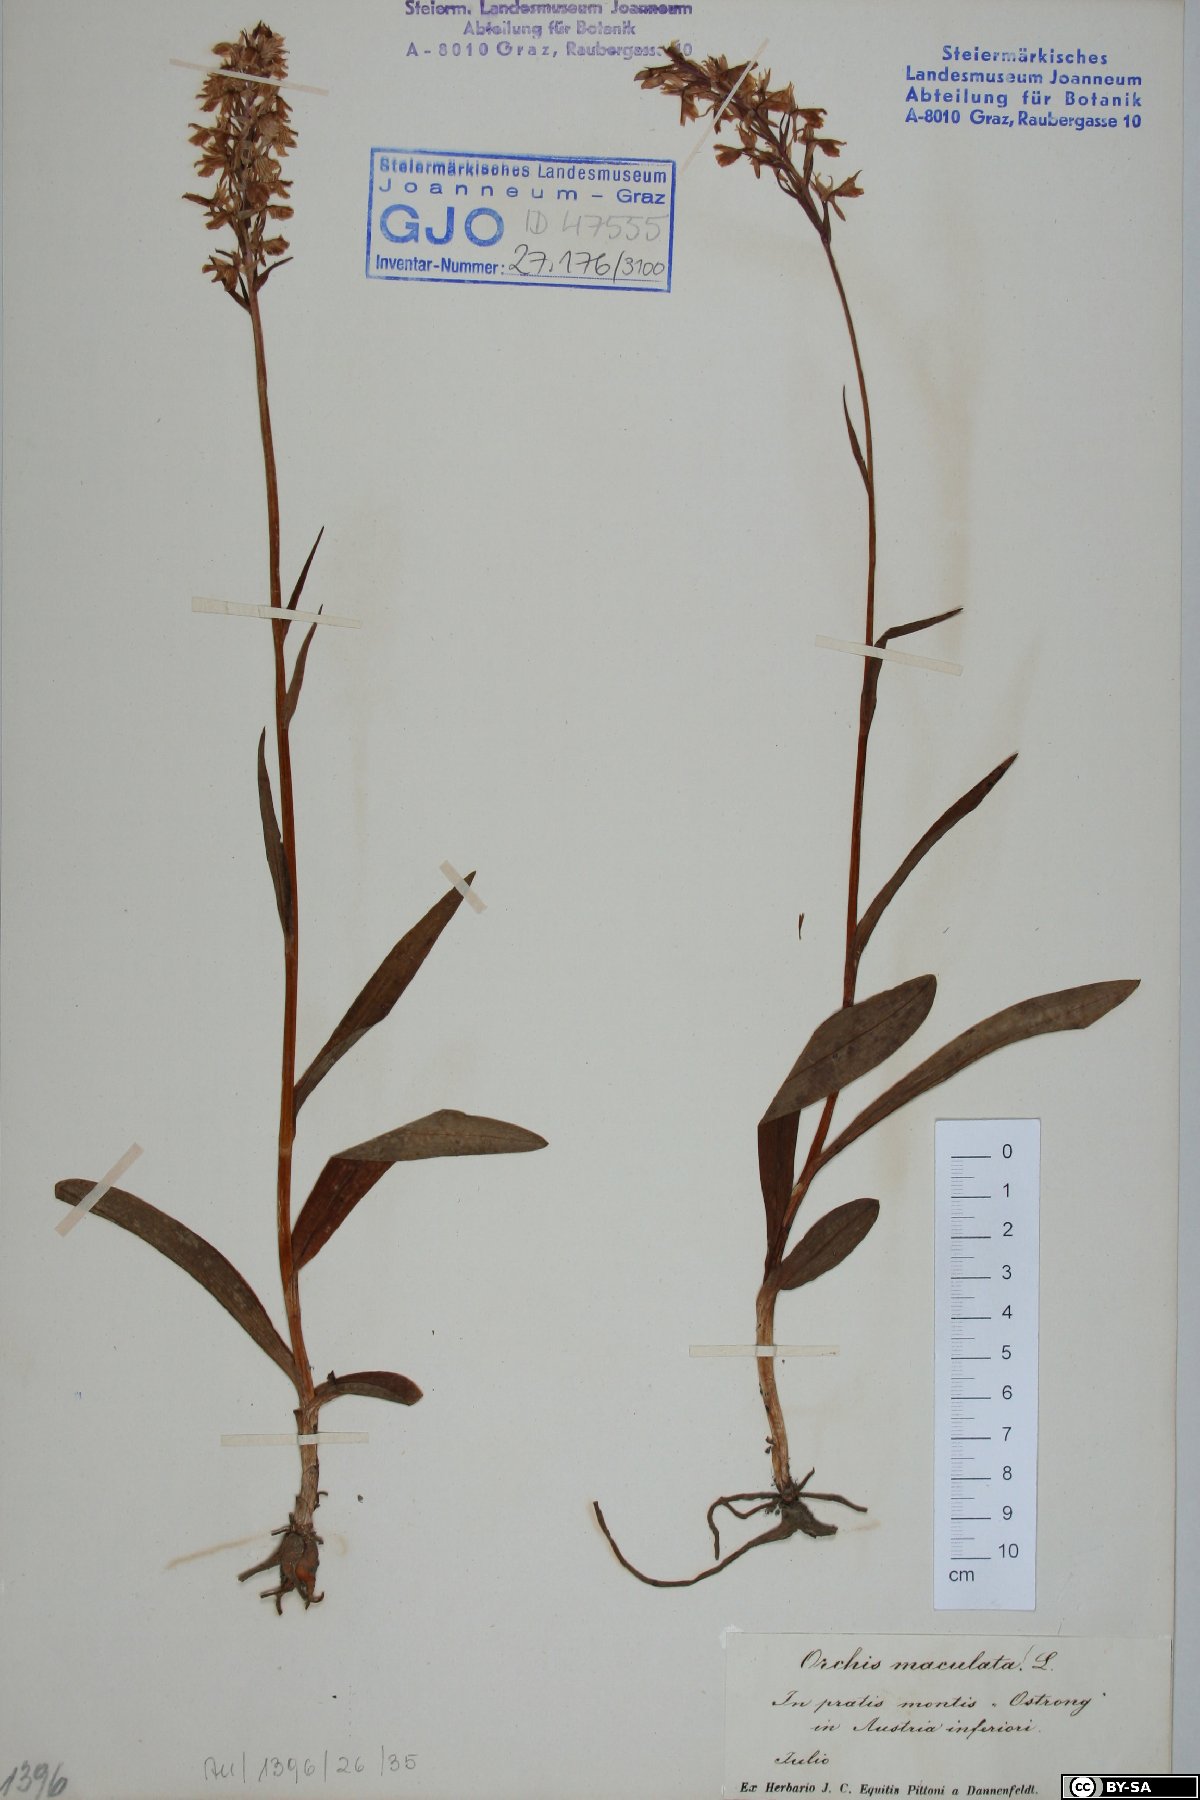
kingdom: Plantae
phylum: Tracheophyta
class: Liliopsida
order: Asparagales
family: Orchidaceae
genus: Dactylorhiza
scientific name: Dactylorhiza maculata
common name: Heath spotted-orchid
